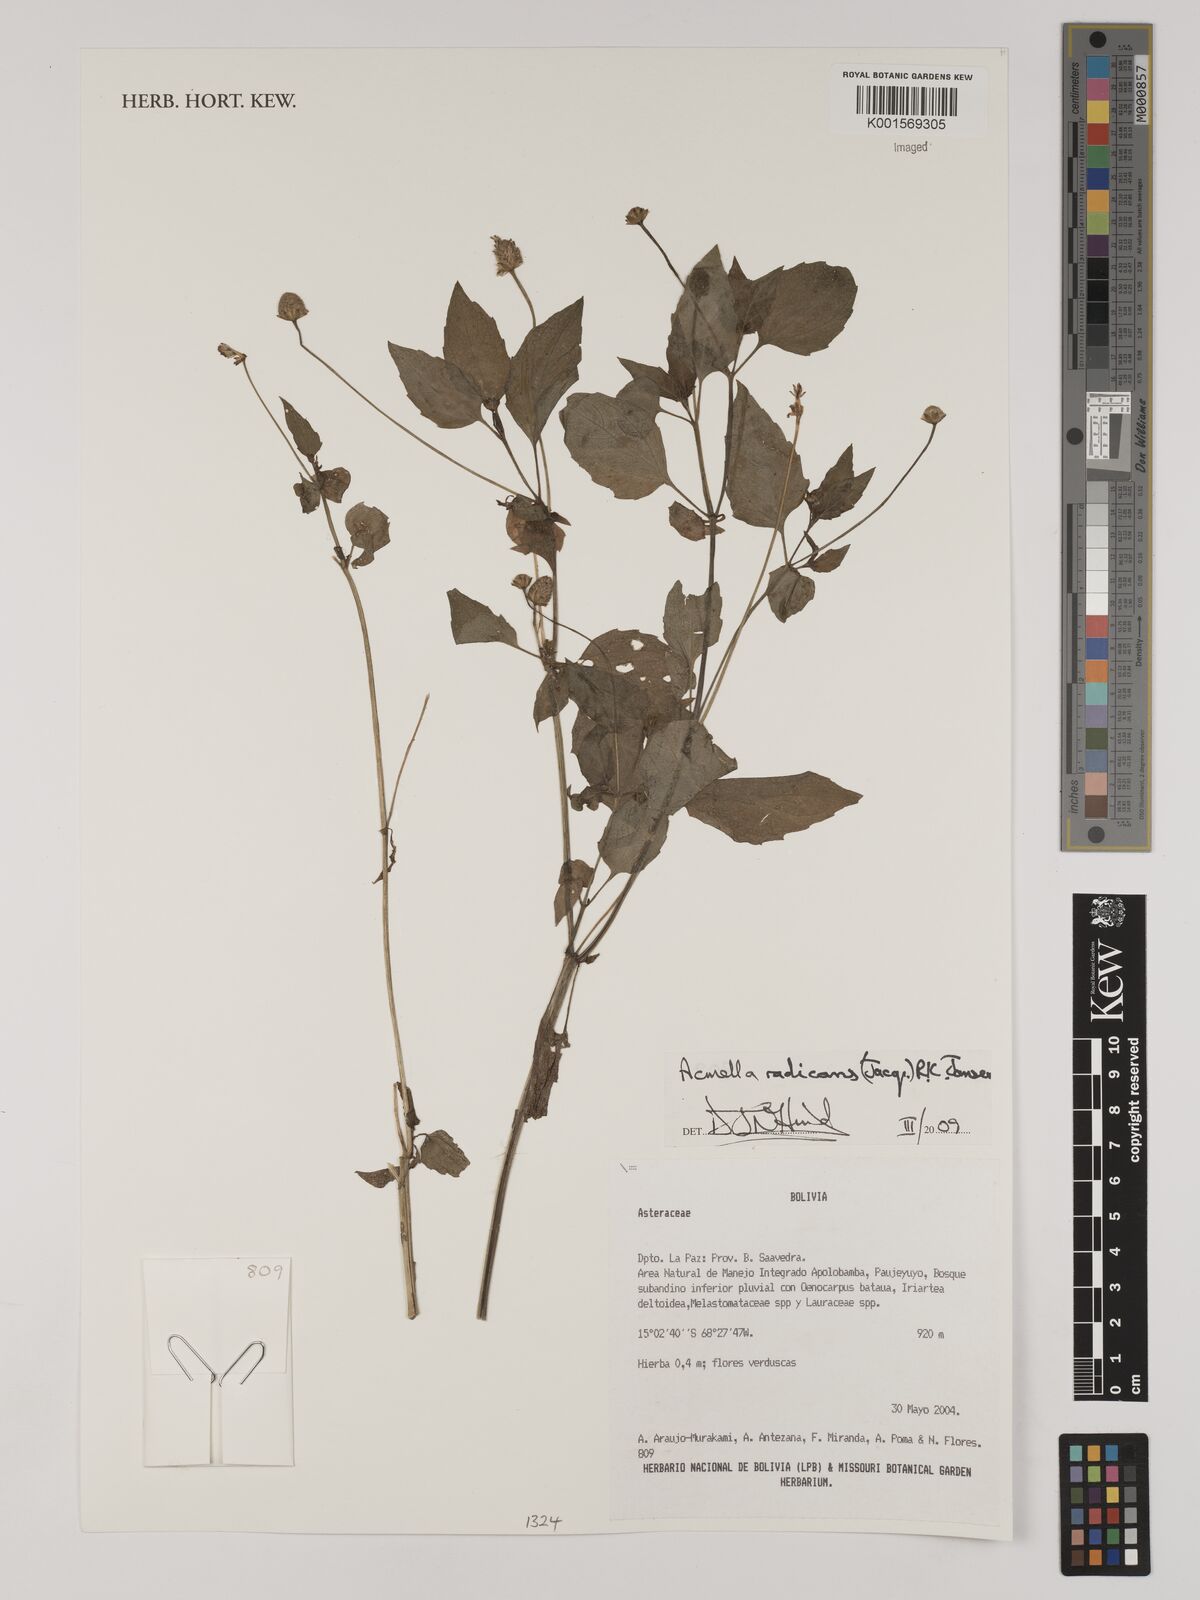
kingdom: Plantae
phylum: Tracheophyta
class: Magnoliopsida
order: Asterales
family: Asteraceae
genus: Acmella
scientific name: Acmella radicans
